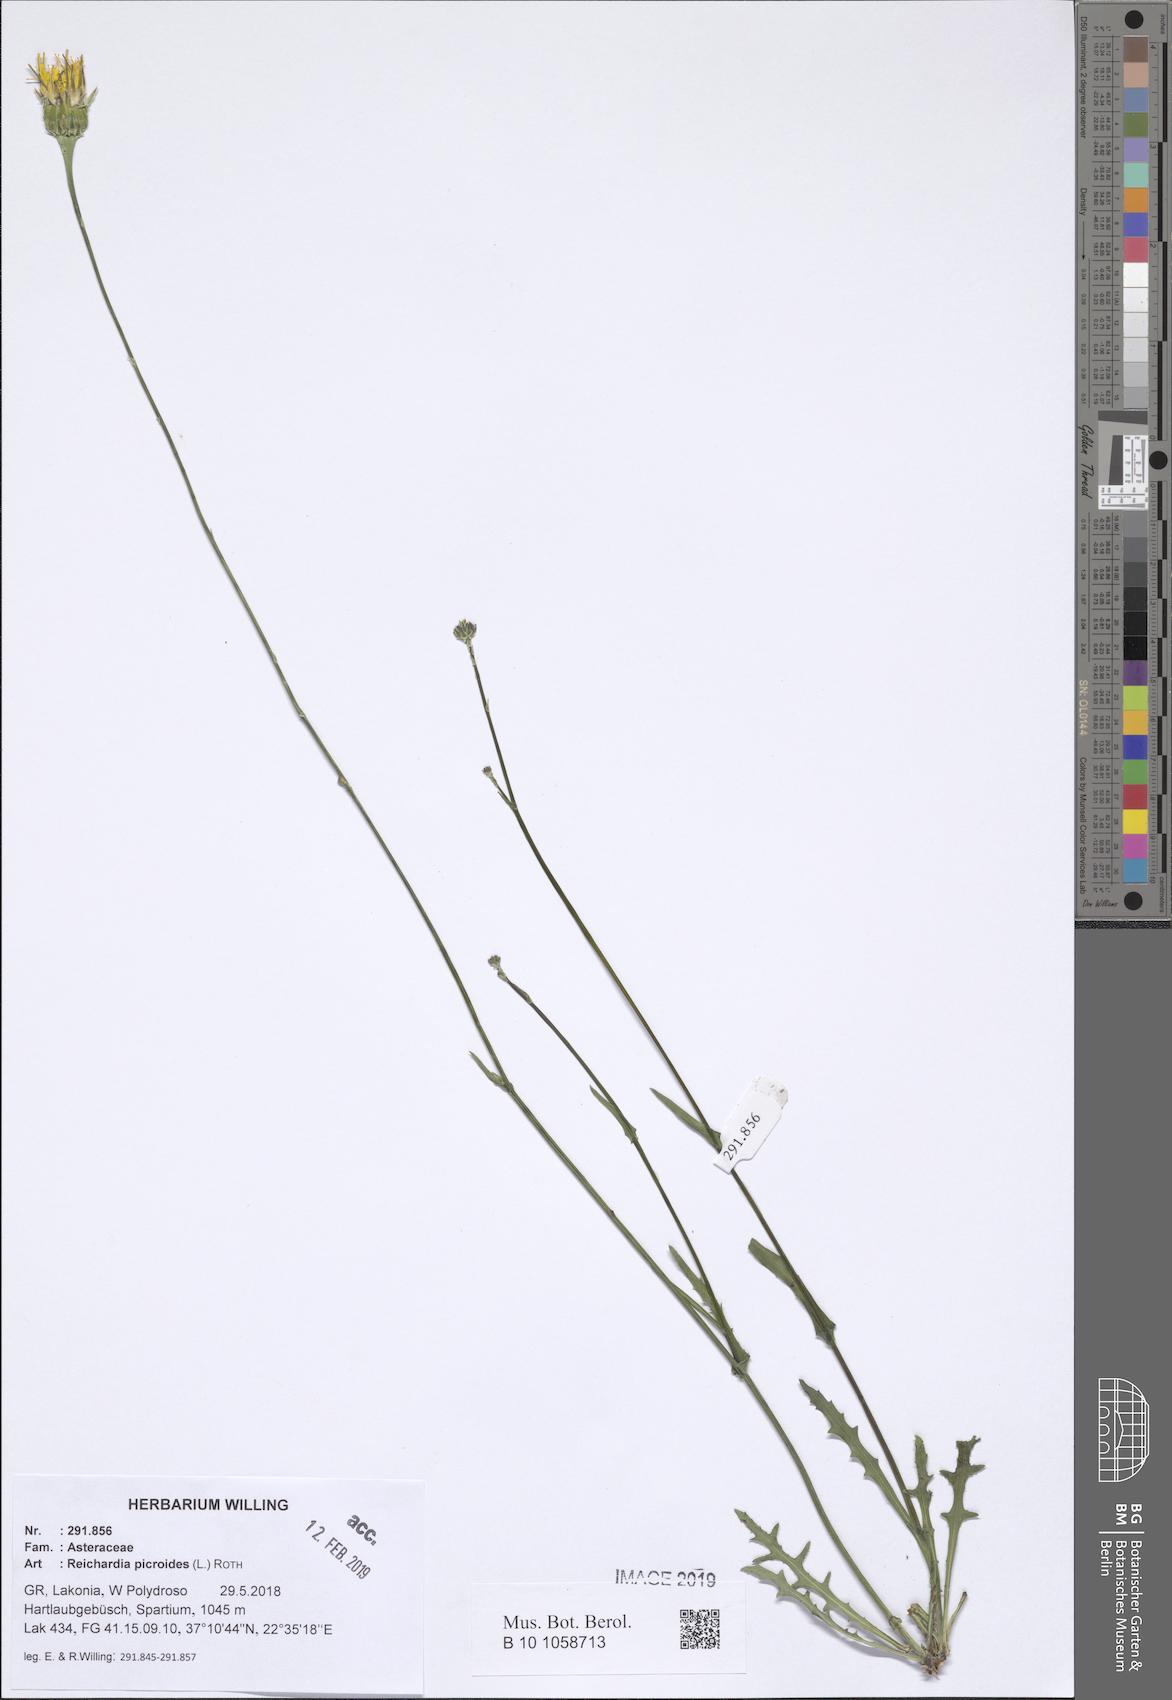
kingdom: Plantae
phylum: Tracheophyta
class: Magnoliopsida
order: Asterales
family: Asteraceae
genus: Reichardia
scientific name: Reichardia picroides
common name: Common brighteyes
